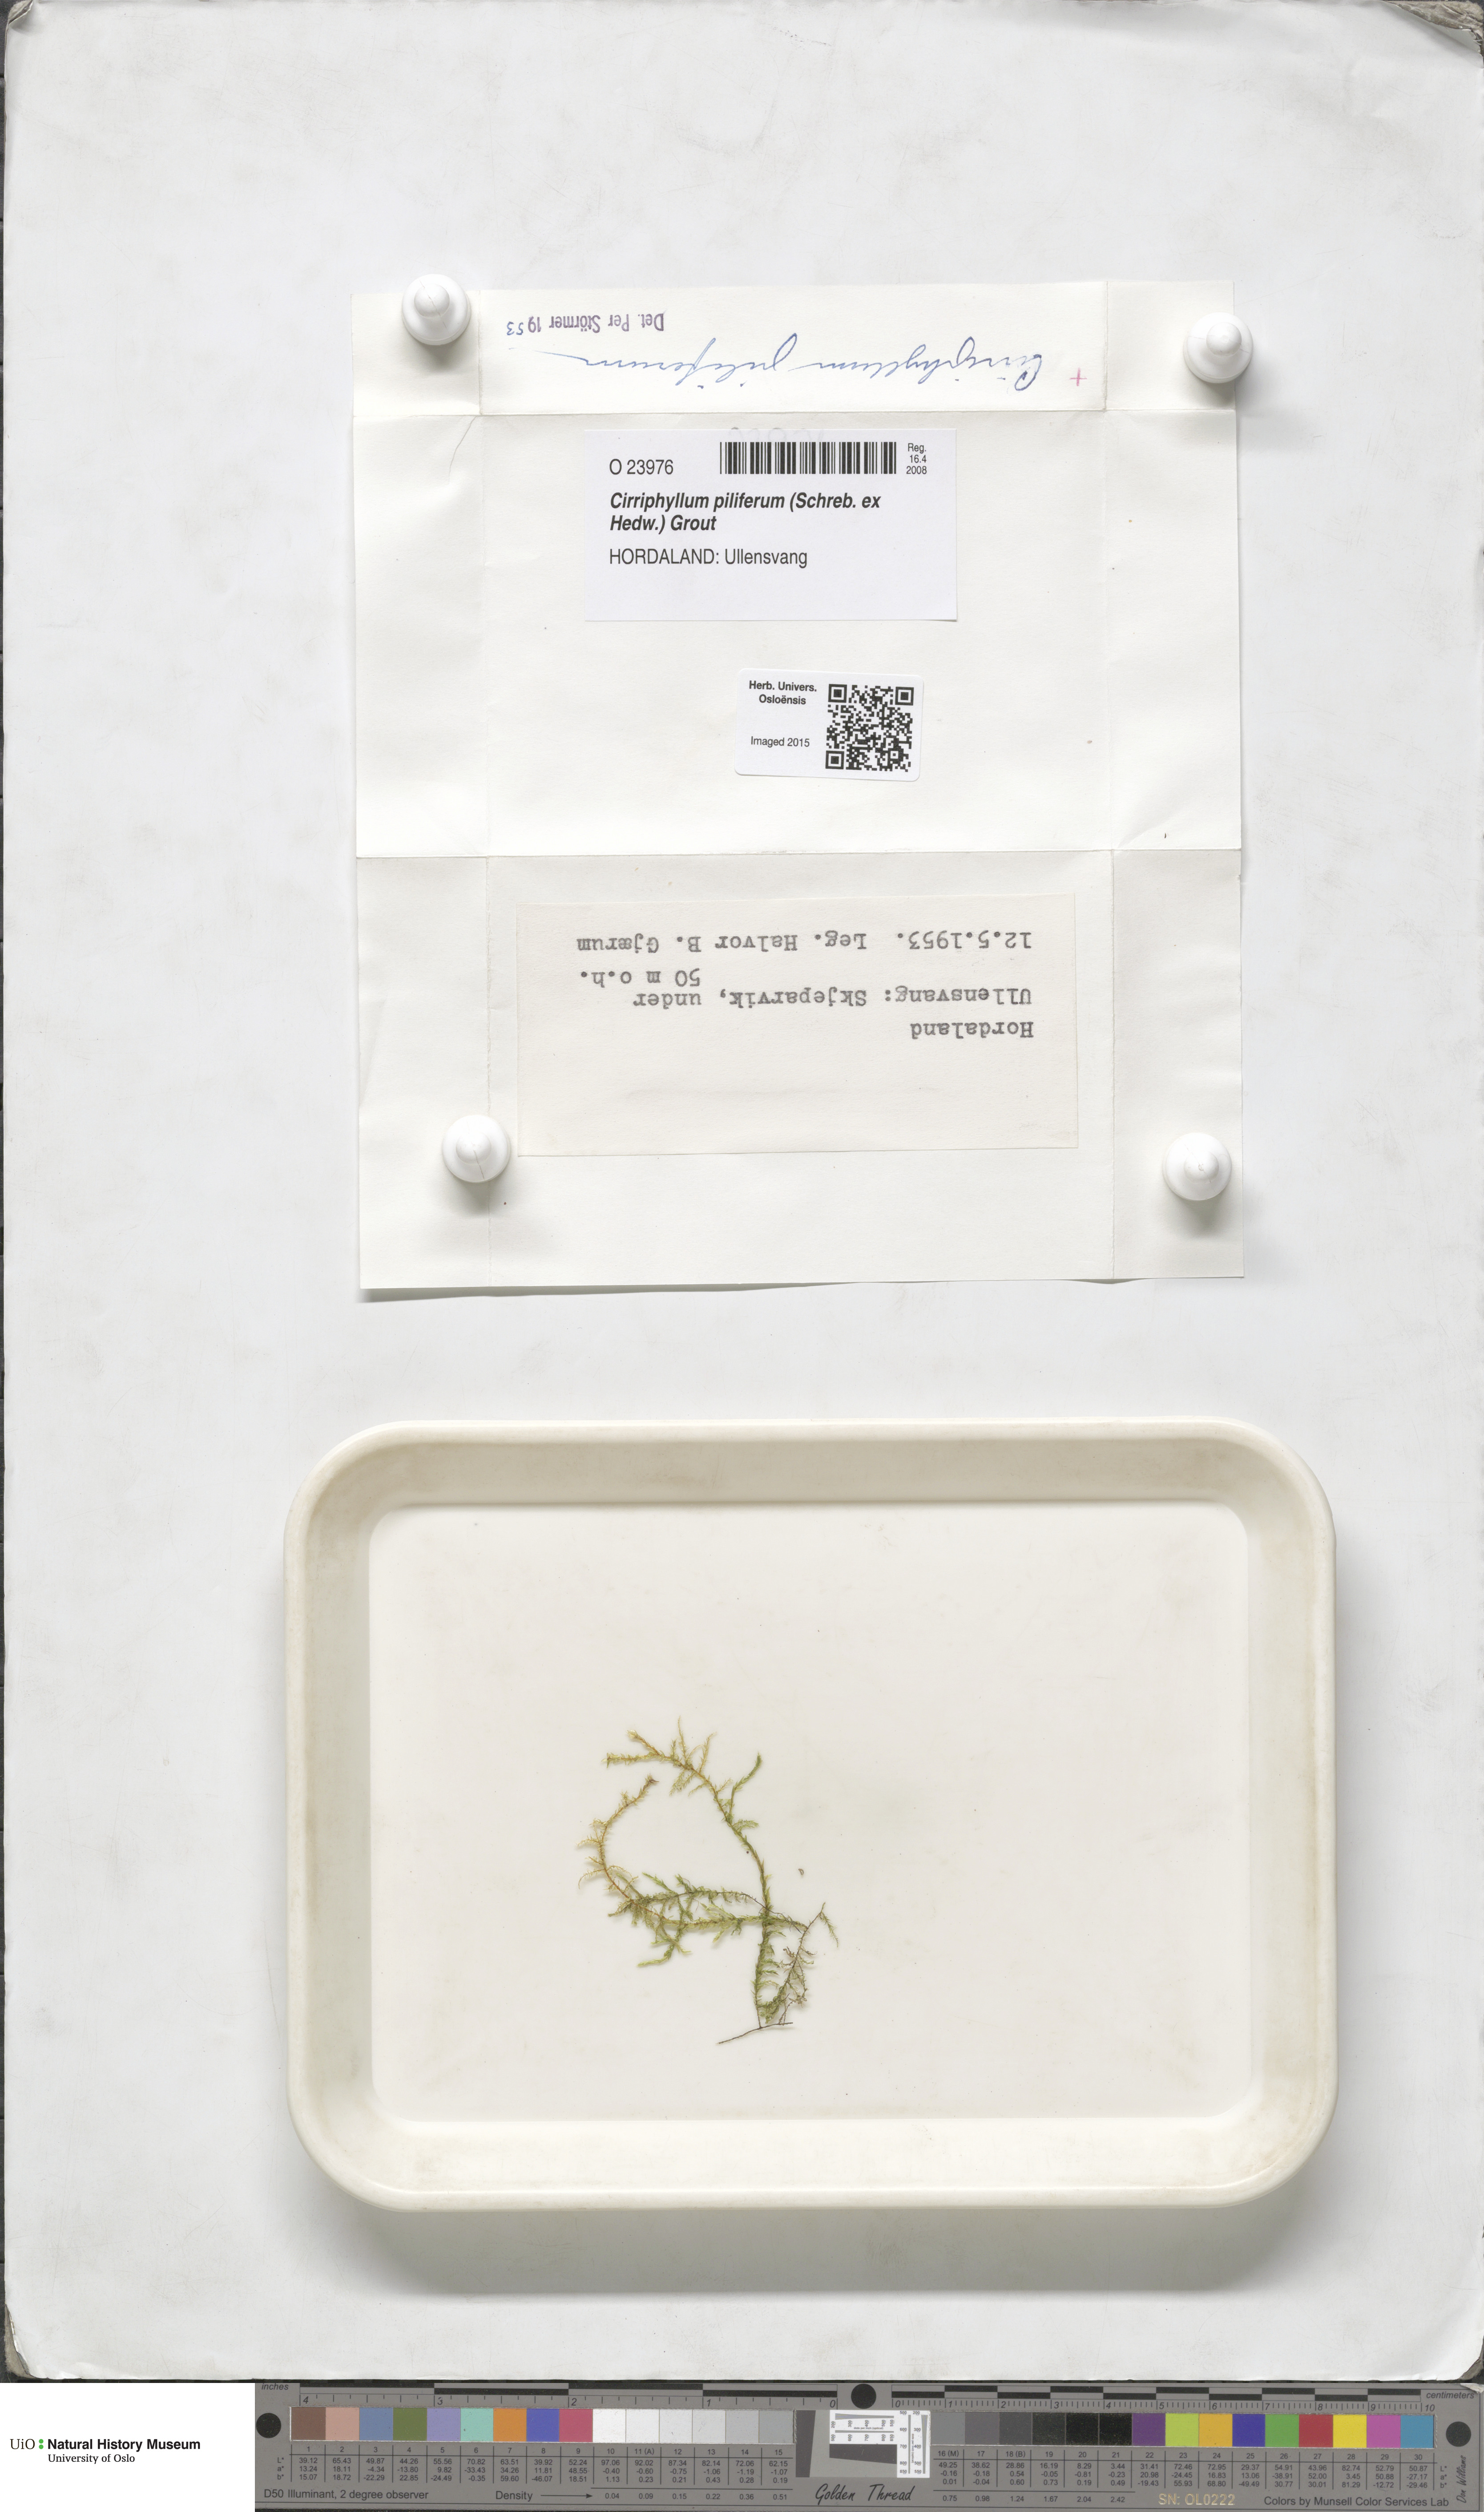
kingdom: Plantae
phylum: Bryophyta
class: Bryopsida
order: Hypnales
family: Brachytheciaceae
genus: Cirriphyllum
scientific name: Cirriphyllum piliferum
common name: Hair-pointed moss
